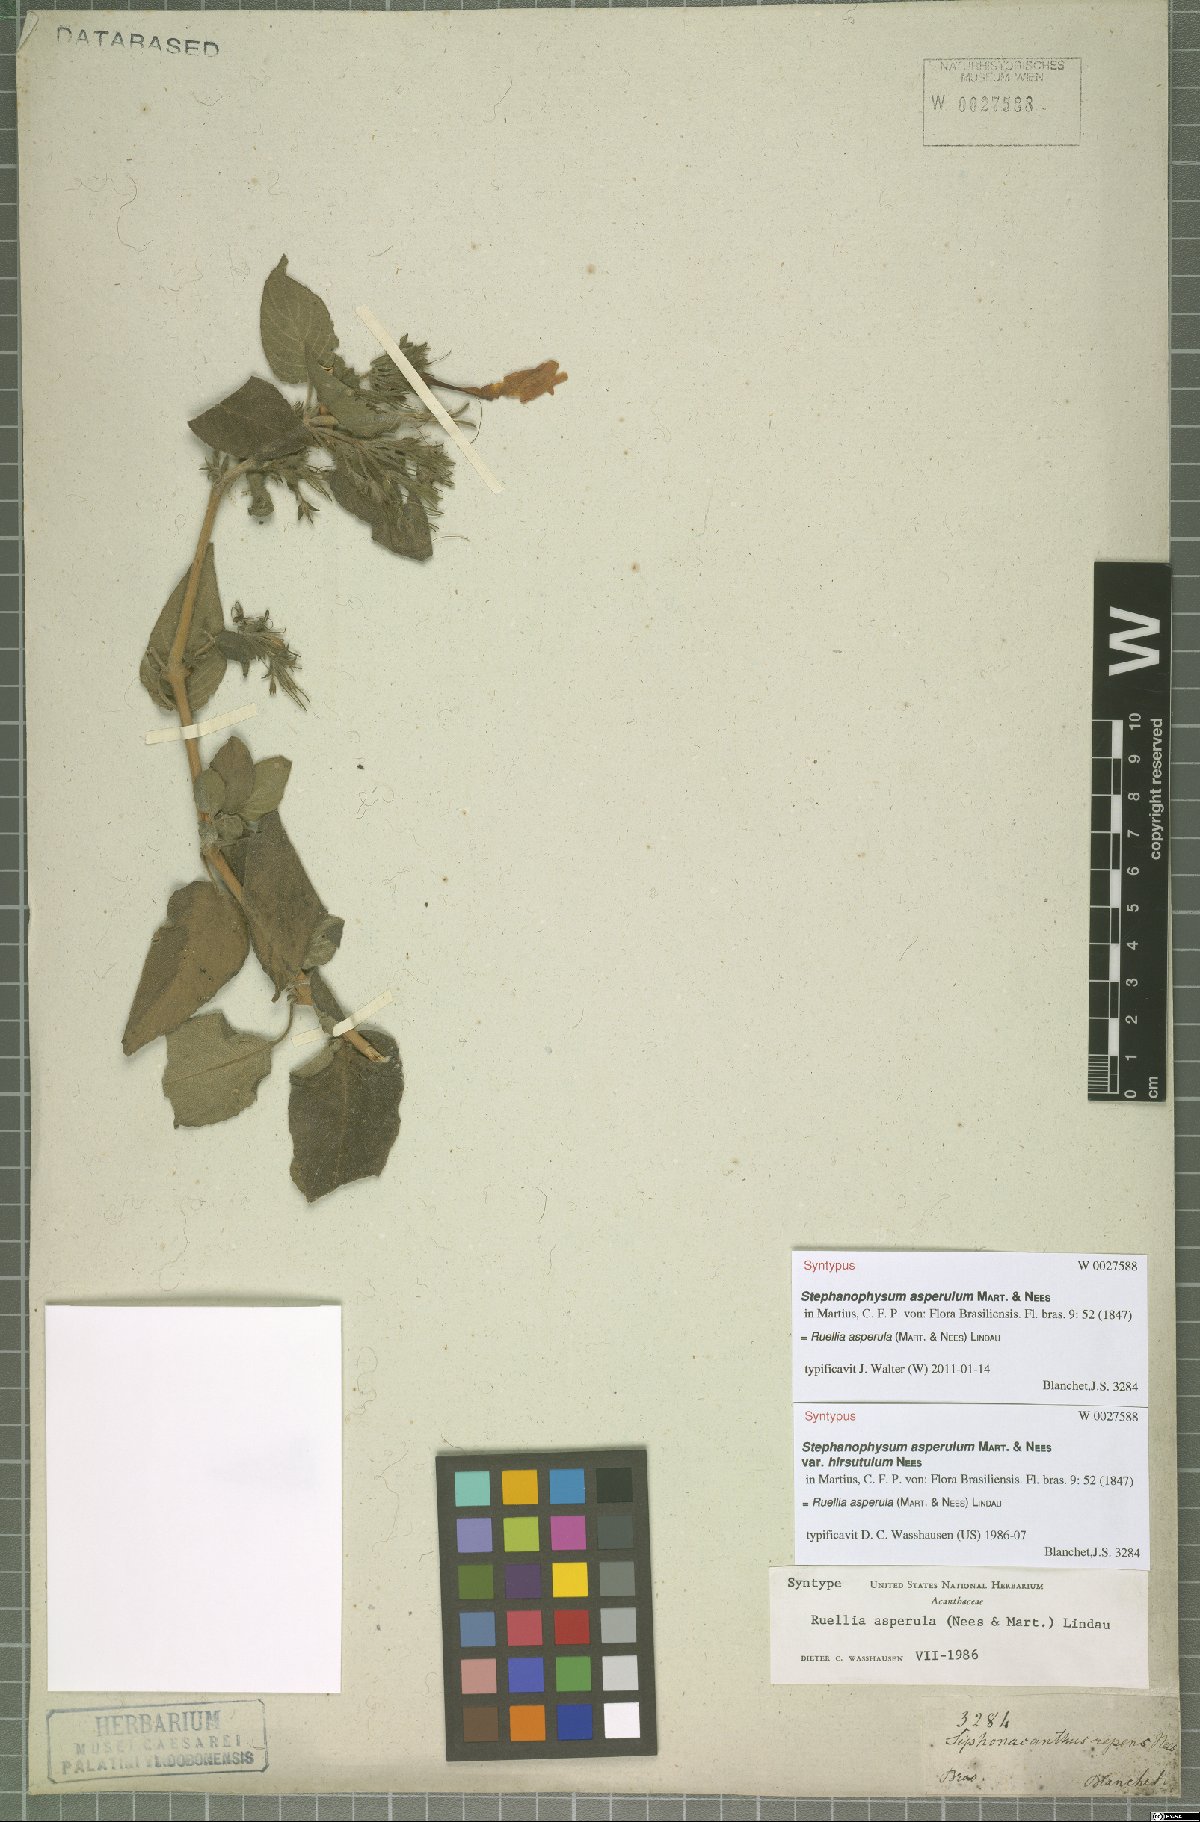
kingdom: Plantae
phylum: Tracheophyta
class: Magnoliopsida
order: Lamiales
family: Acanthaceae
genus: Ruellia
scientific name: Ruellia asperula
